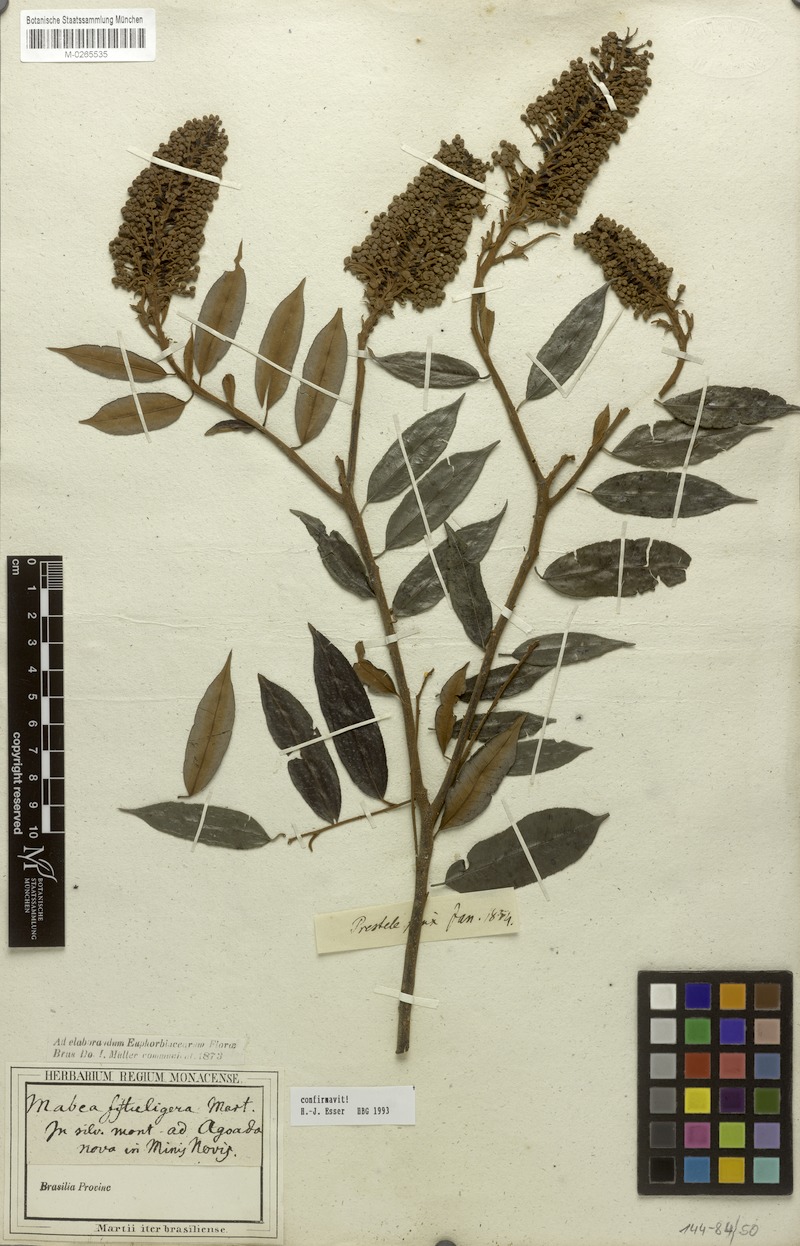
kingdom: Plantae
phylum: Tracheophyta
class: Magnoliopsida
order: Malpighiales
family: Euphorbiaceae
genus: Mabea
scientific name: Mabea fistulifera
